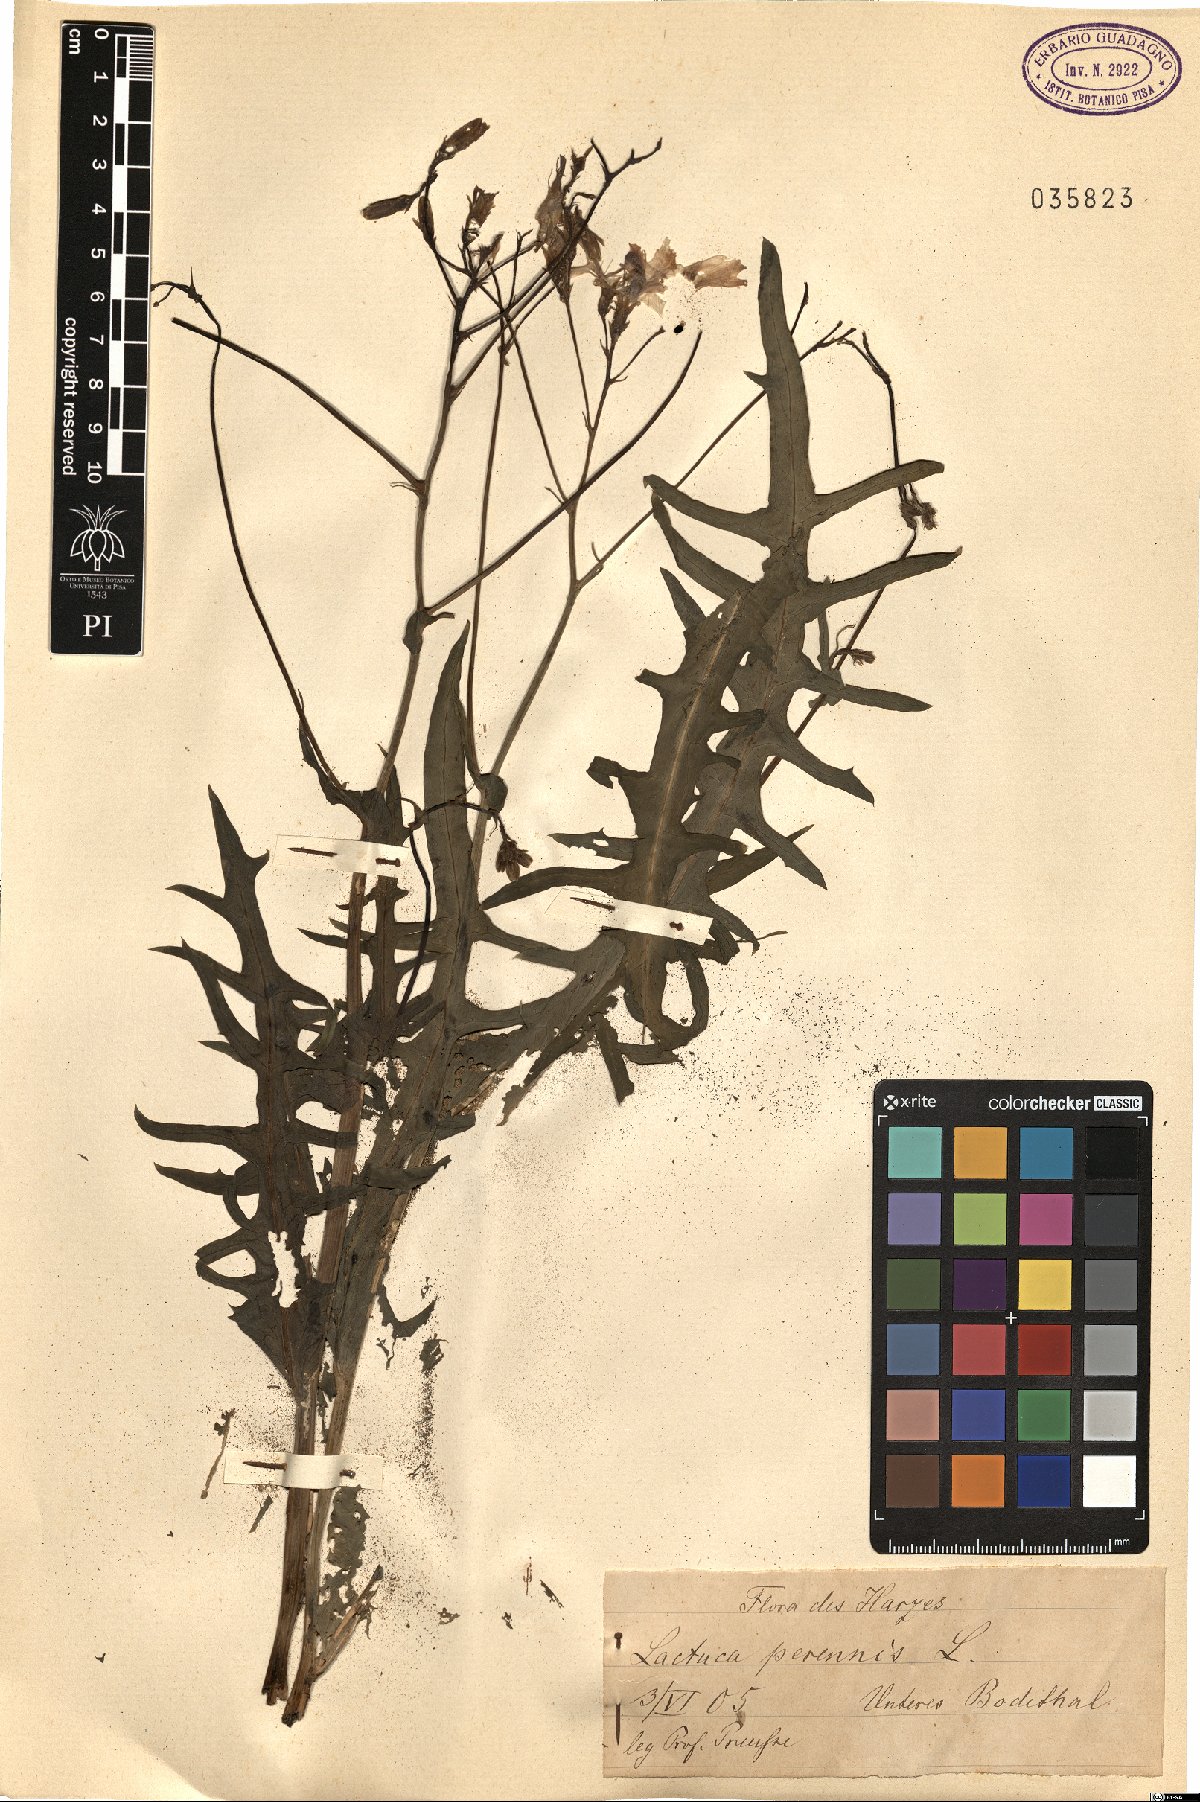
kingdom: Plantae
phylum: Tracheophyta
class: Magnoliopsida
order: Asterales
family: Asteraceae
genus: Lactuca
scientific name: Lactuca perennis
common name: Mountain lettuce
